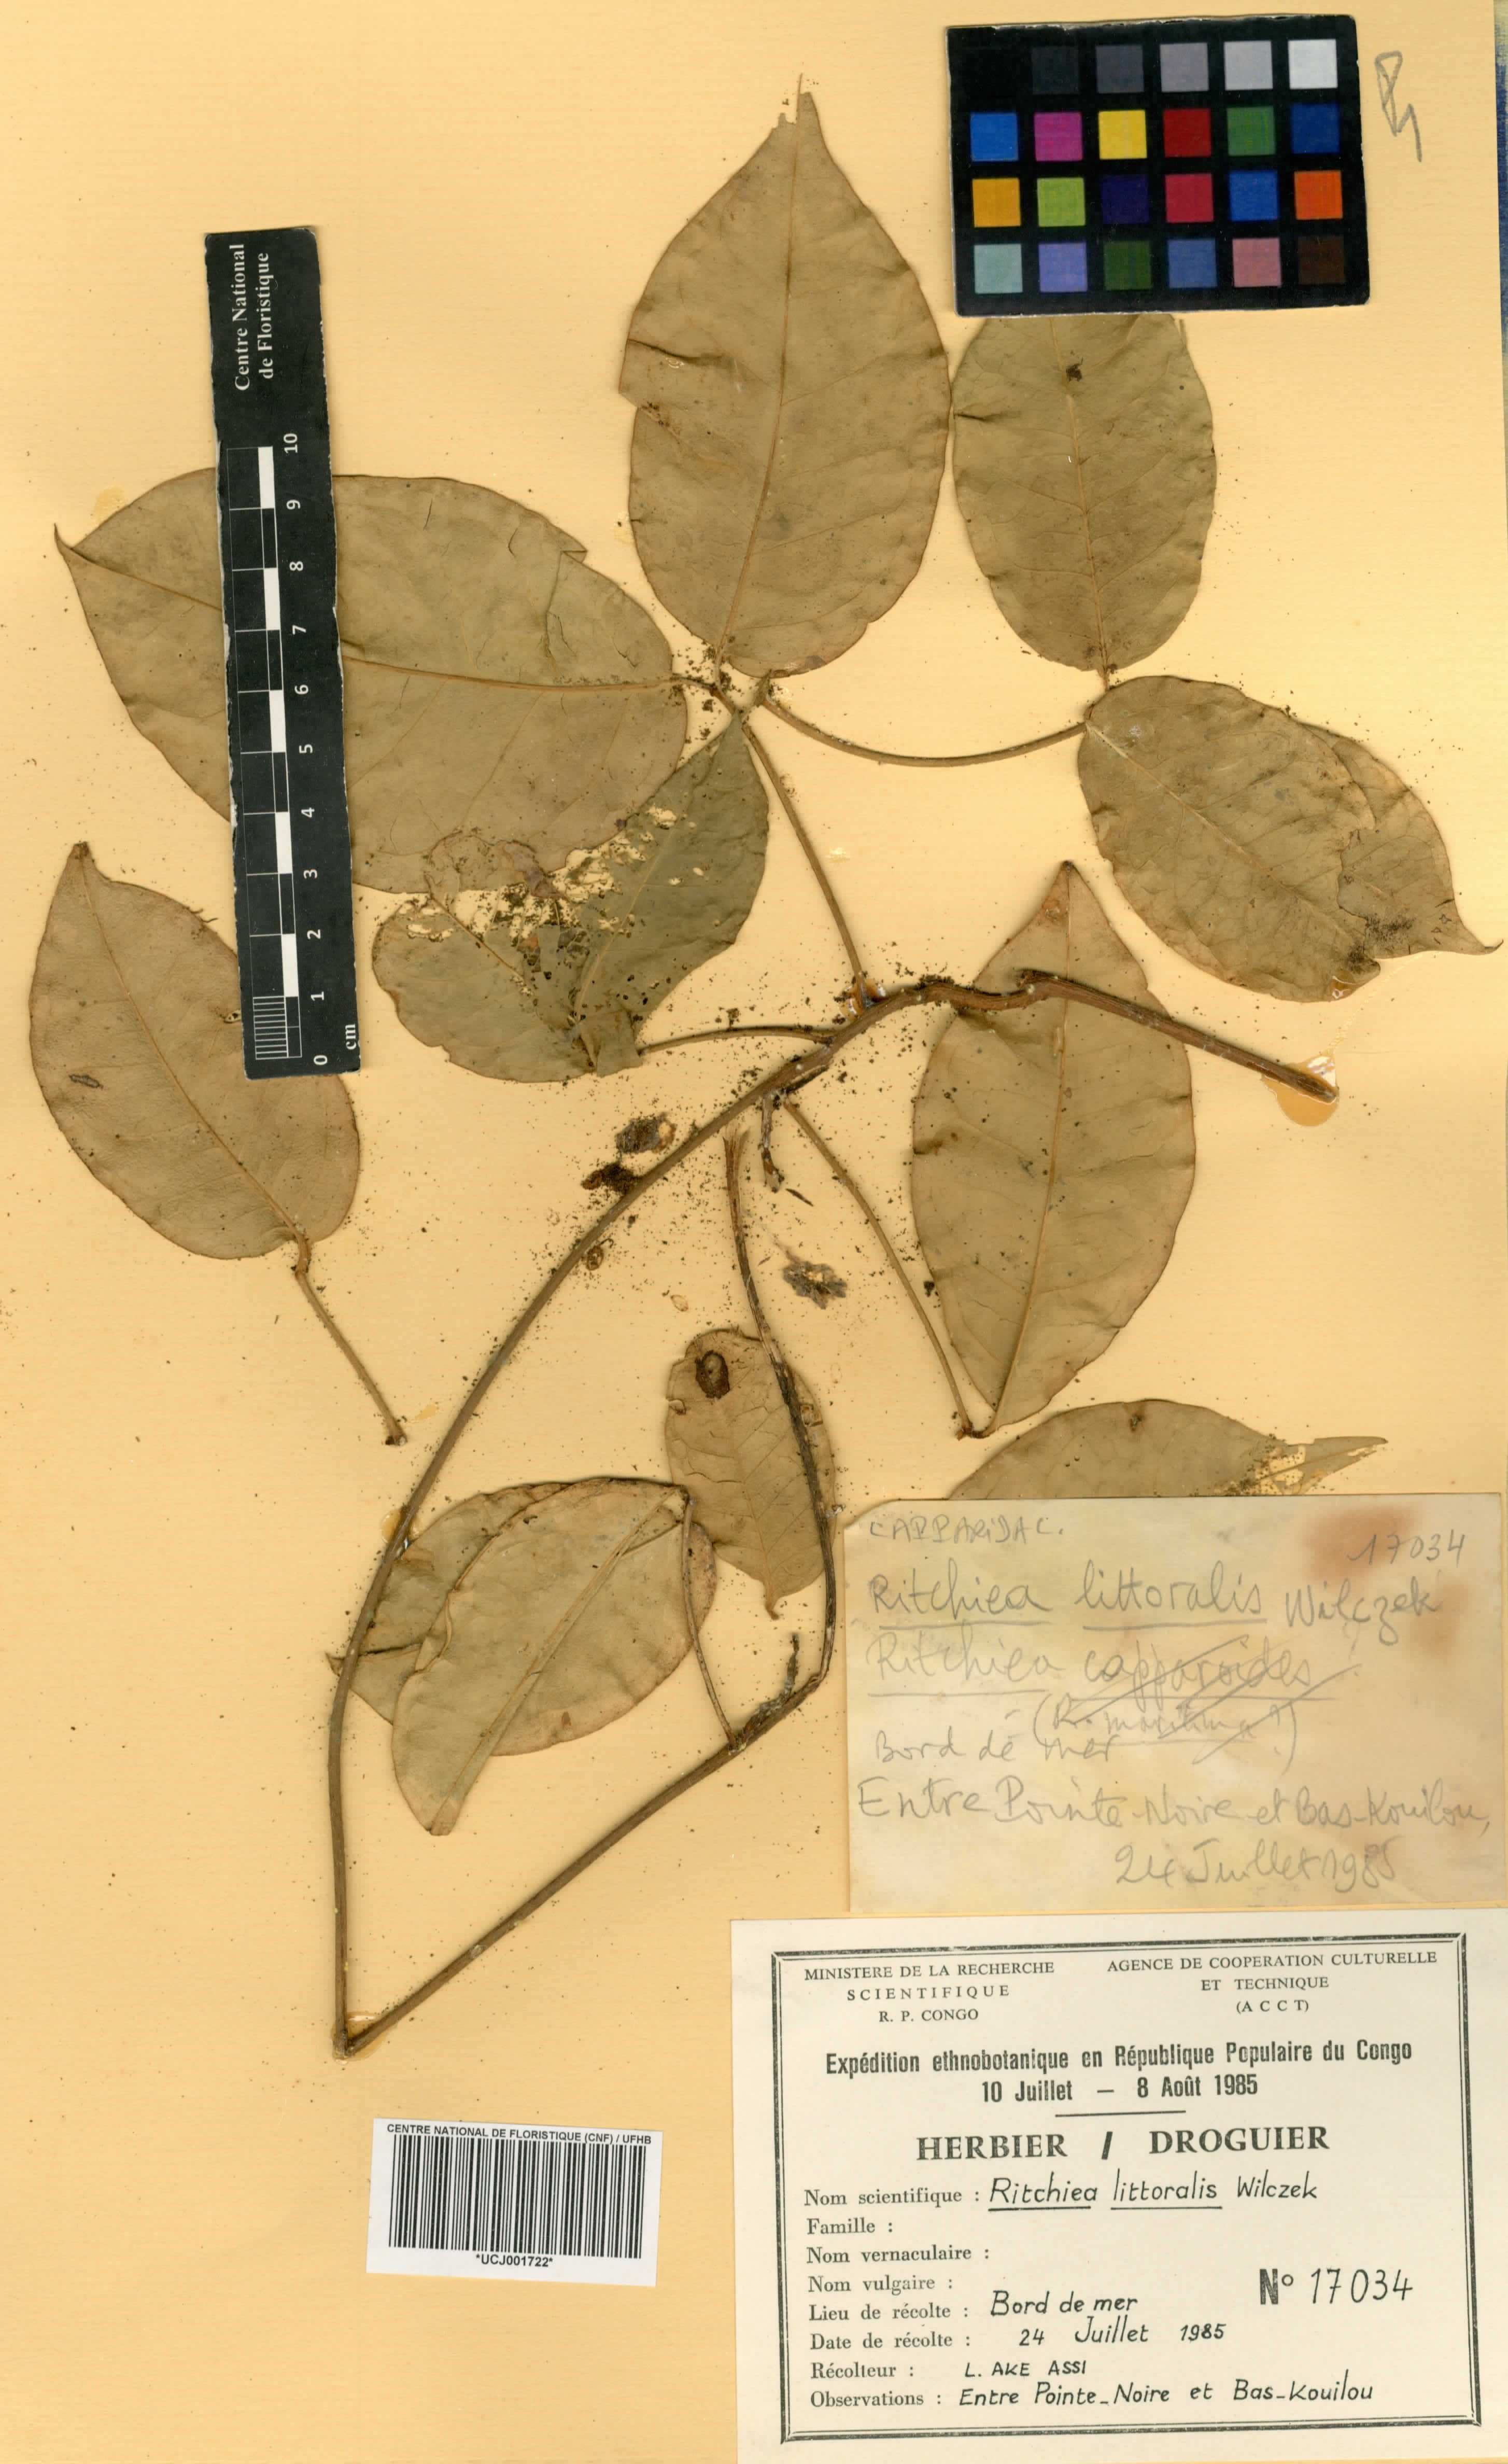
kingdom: Plantae
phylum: Tracheophyta
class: Magnoliopsida
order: Brassicales
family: Capparaceae
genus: Ritchiea
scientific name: Ritchiea littoralis
